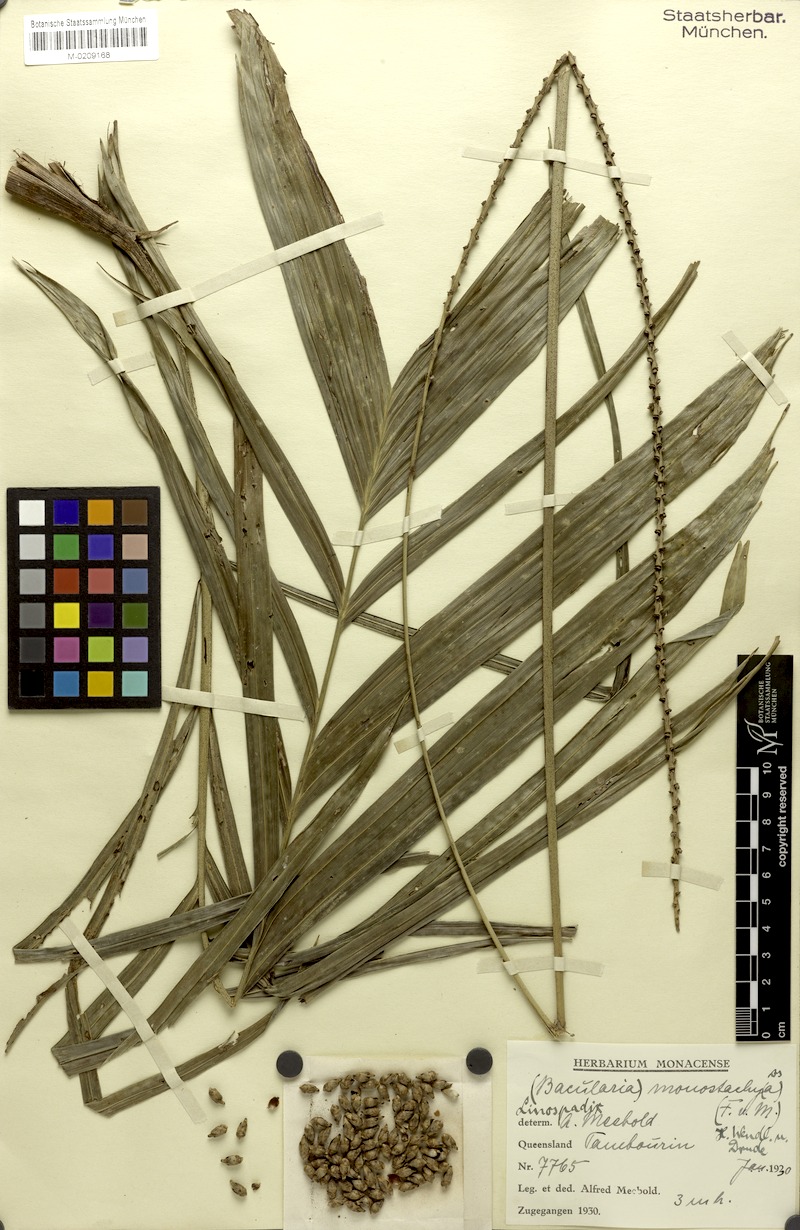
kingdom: Plantae
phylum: Tracheophyta
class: Liliopsida
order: Arecales
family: Arecaceae
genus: Linospadix
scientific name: Linospadix monostachyos
